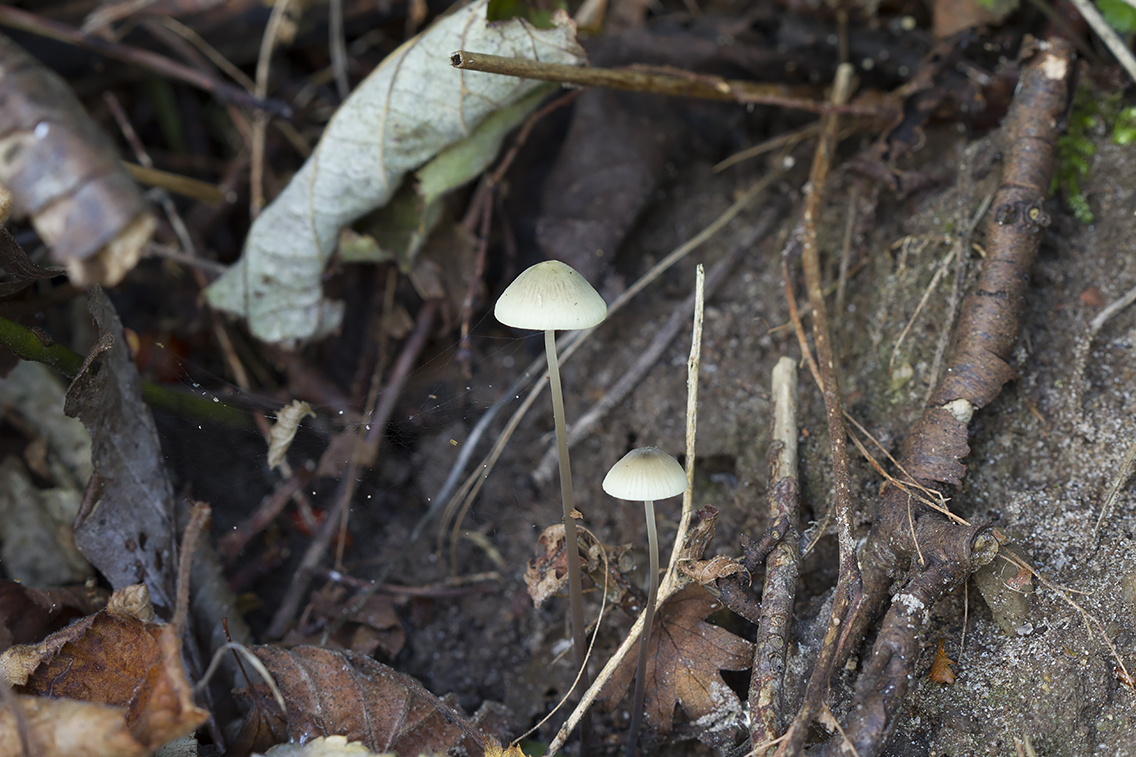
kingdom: Fungi
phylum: Basidiomycota
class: Agaricomycetes
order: Agaricales
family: Mycenaceae
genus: Mycena
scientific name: Mycena arcangeliana
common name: oliven-huesvamp
